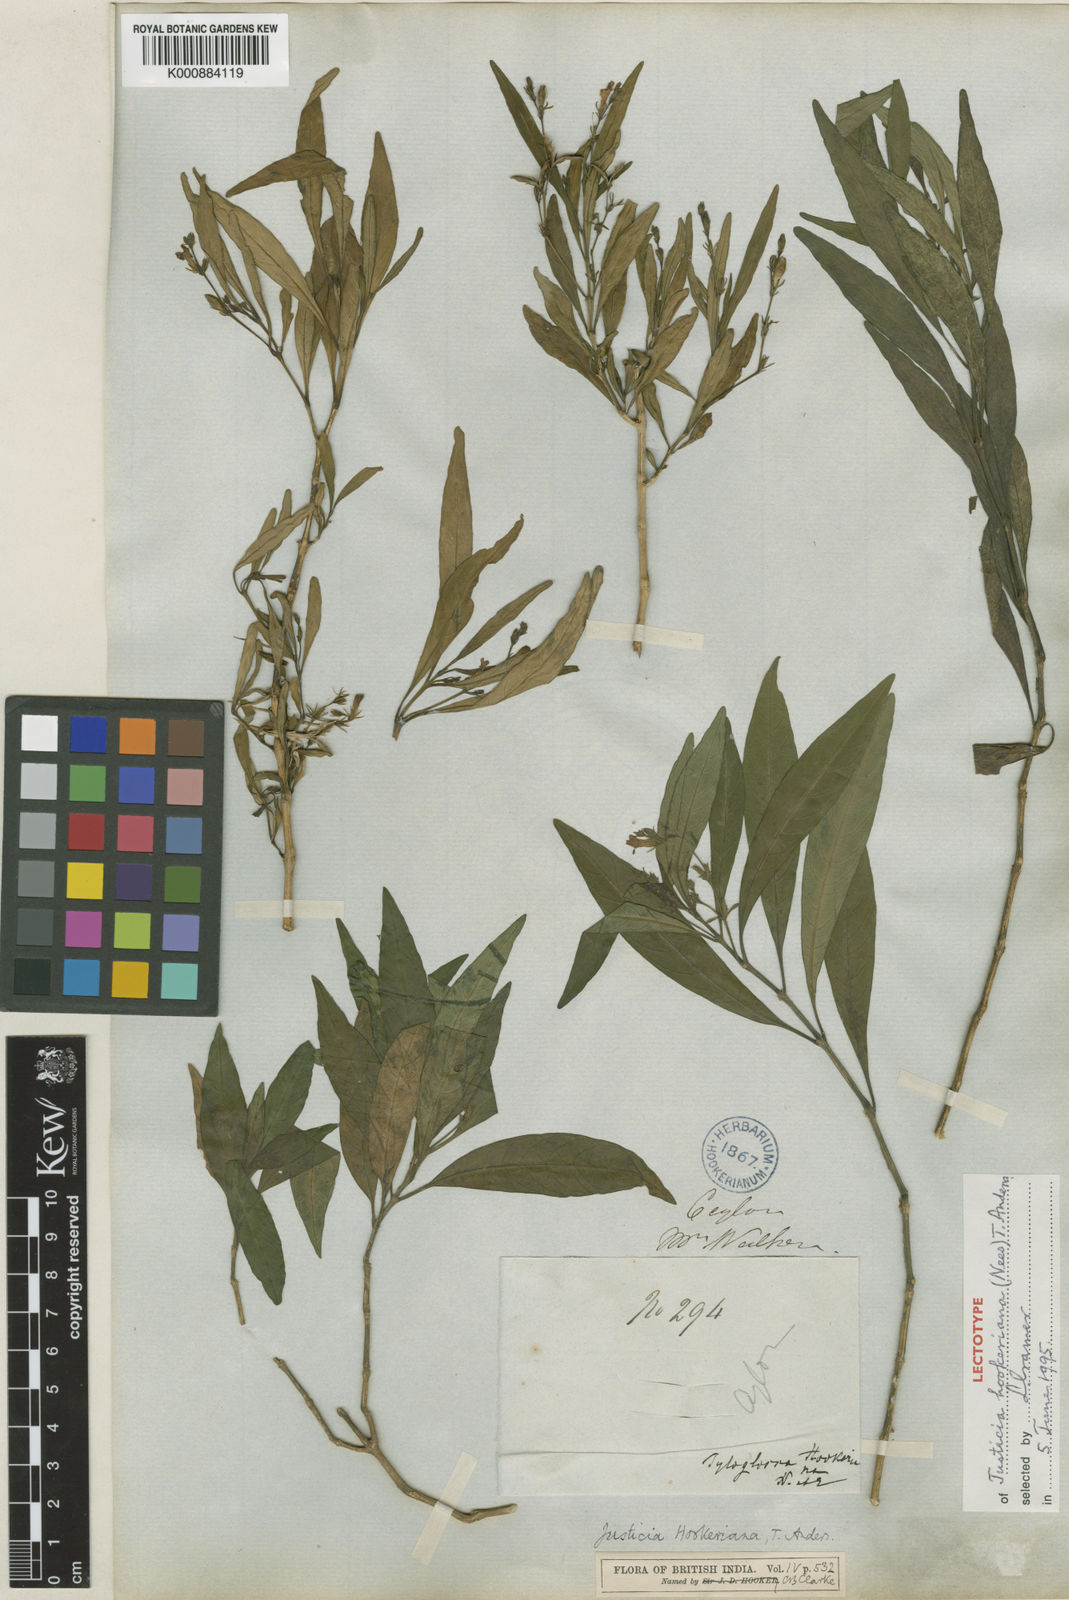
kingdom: Plantae
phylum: Tracheophyta
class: Magnoliopsida
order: Lamiales
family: Acanthaceae
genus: Leptostachya
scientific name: Leptostachya zeylanica
